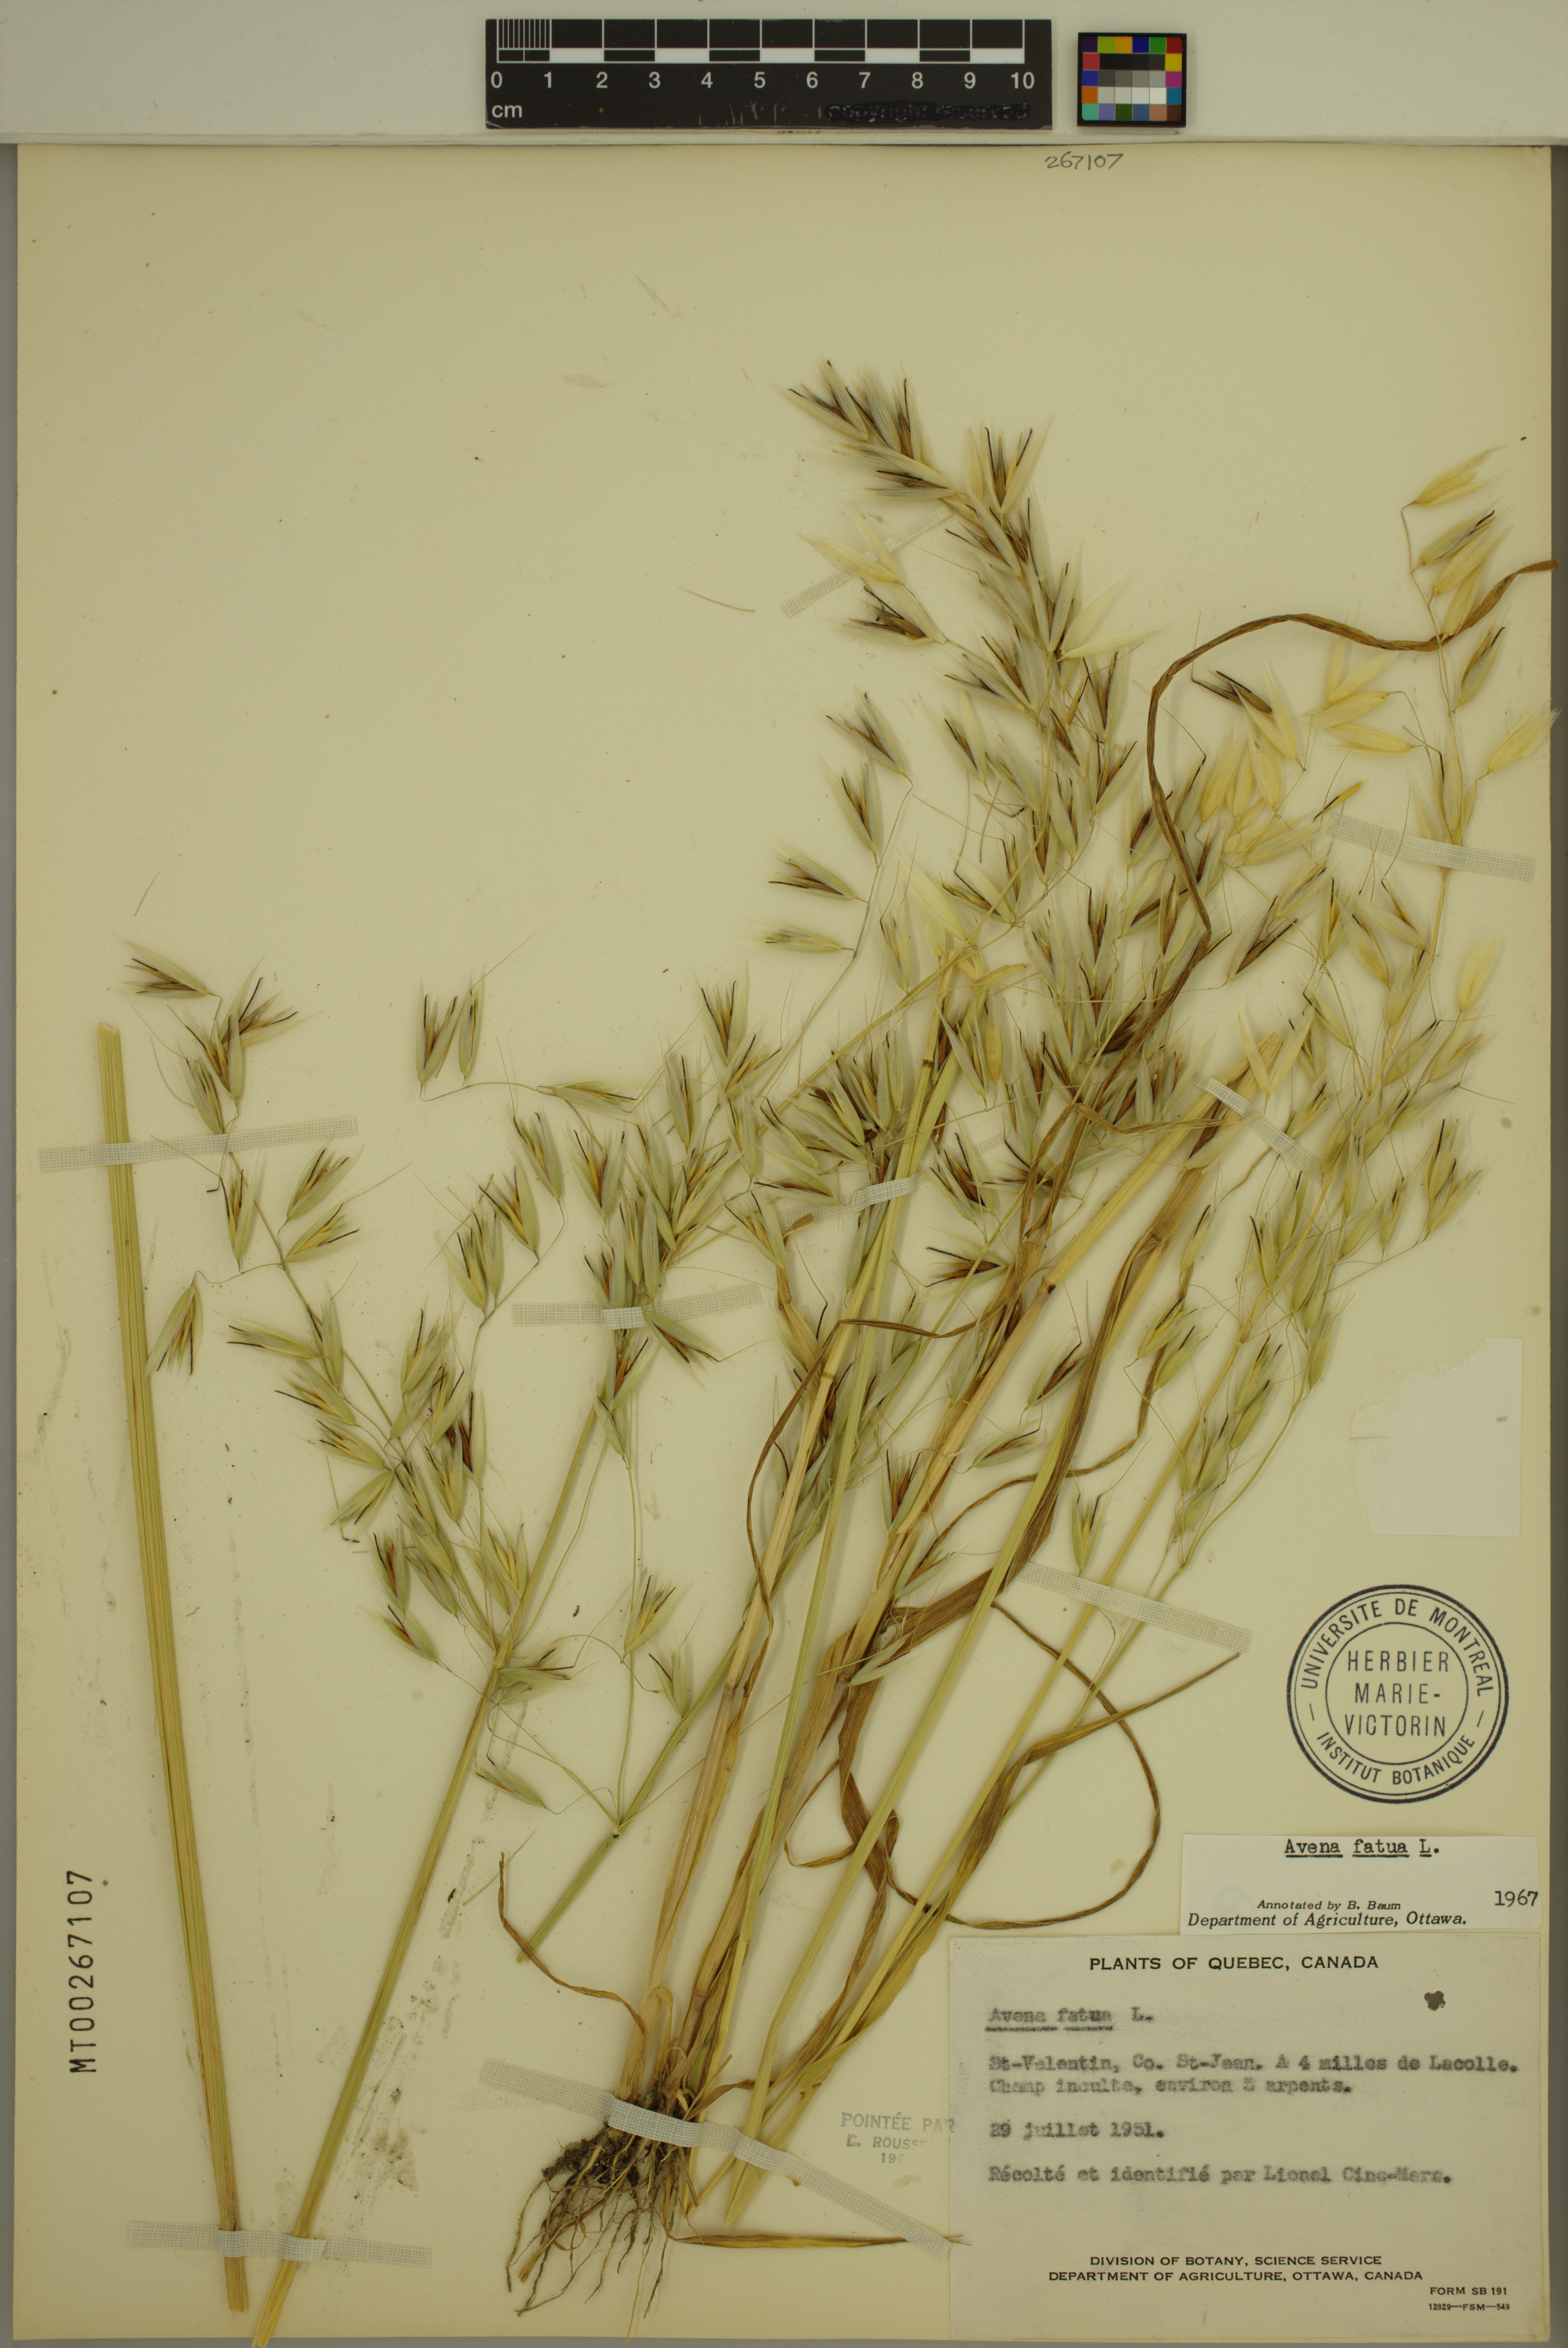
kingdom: Plantae
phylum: Tracheophyta
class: Liliopsida
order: Poales
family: Poaceae
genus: Avena
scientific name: Avena fatua
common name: Wild oat
